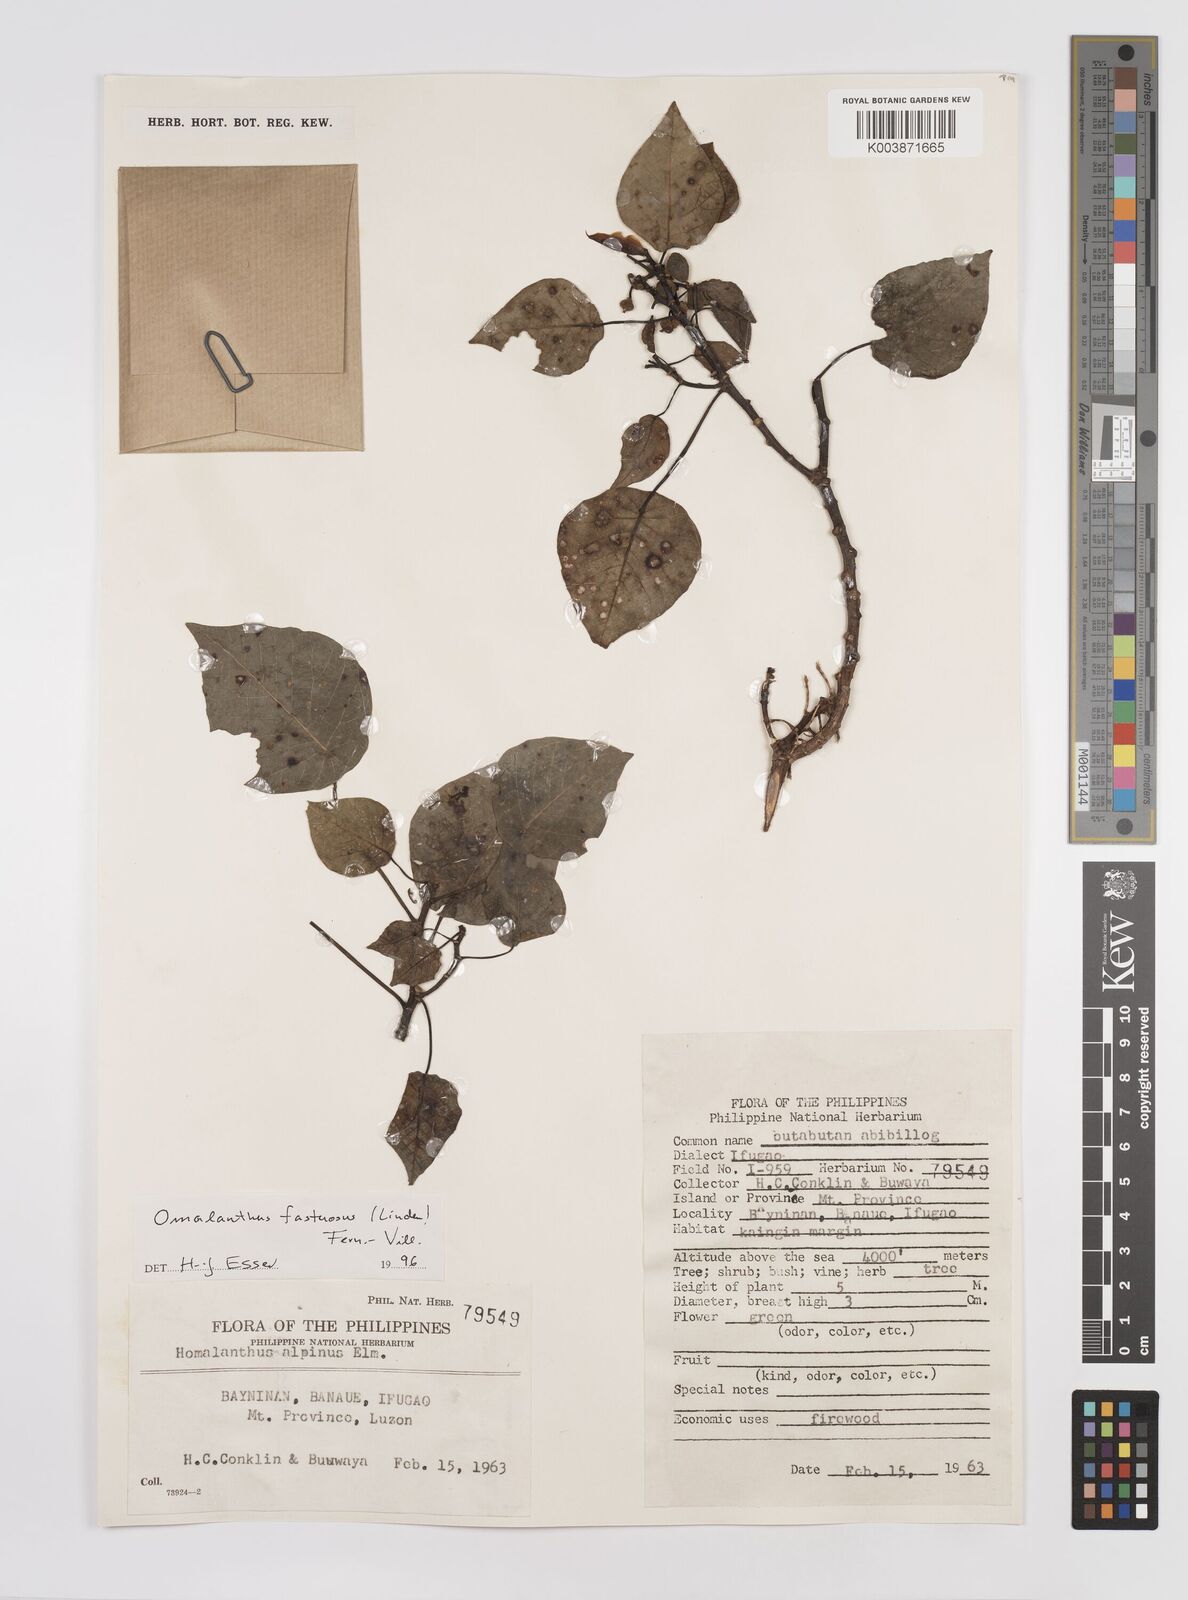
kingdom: Plantae
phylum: Tracheophyta
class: Magnoliopsida
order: Malpighiales
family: Euphorbiaceae
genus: Homalanthus
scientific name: Homalanthus fastuosus
